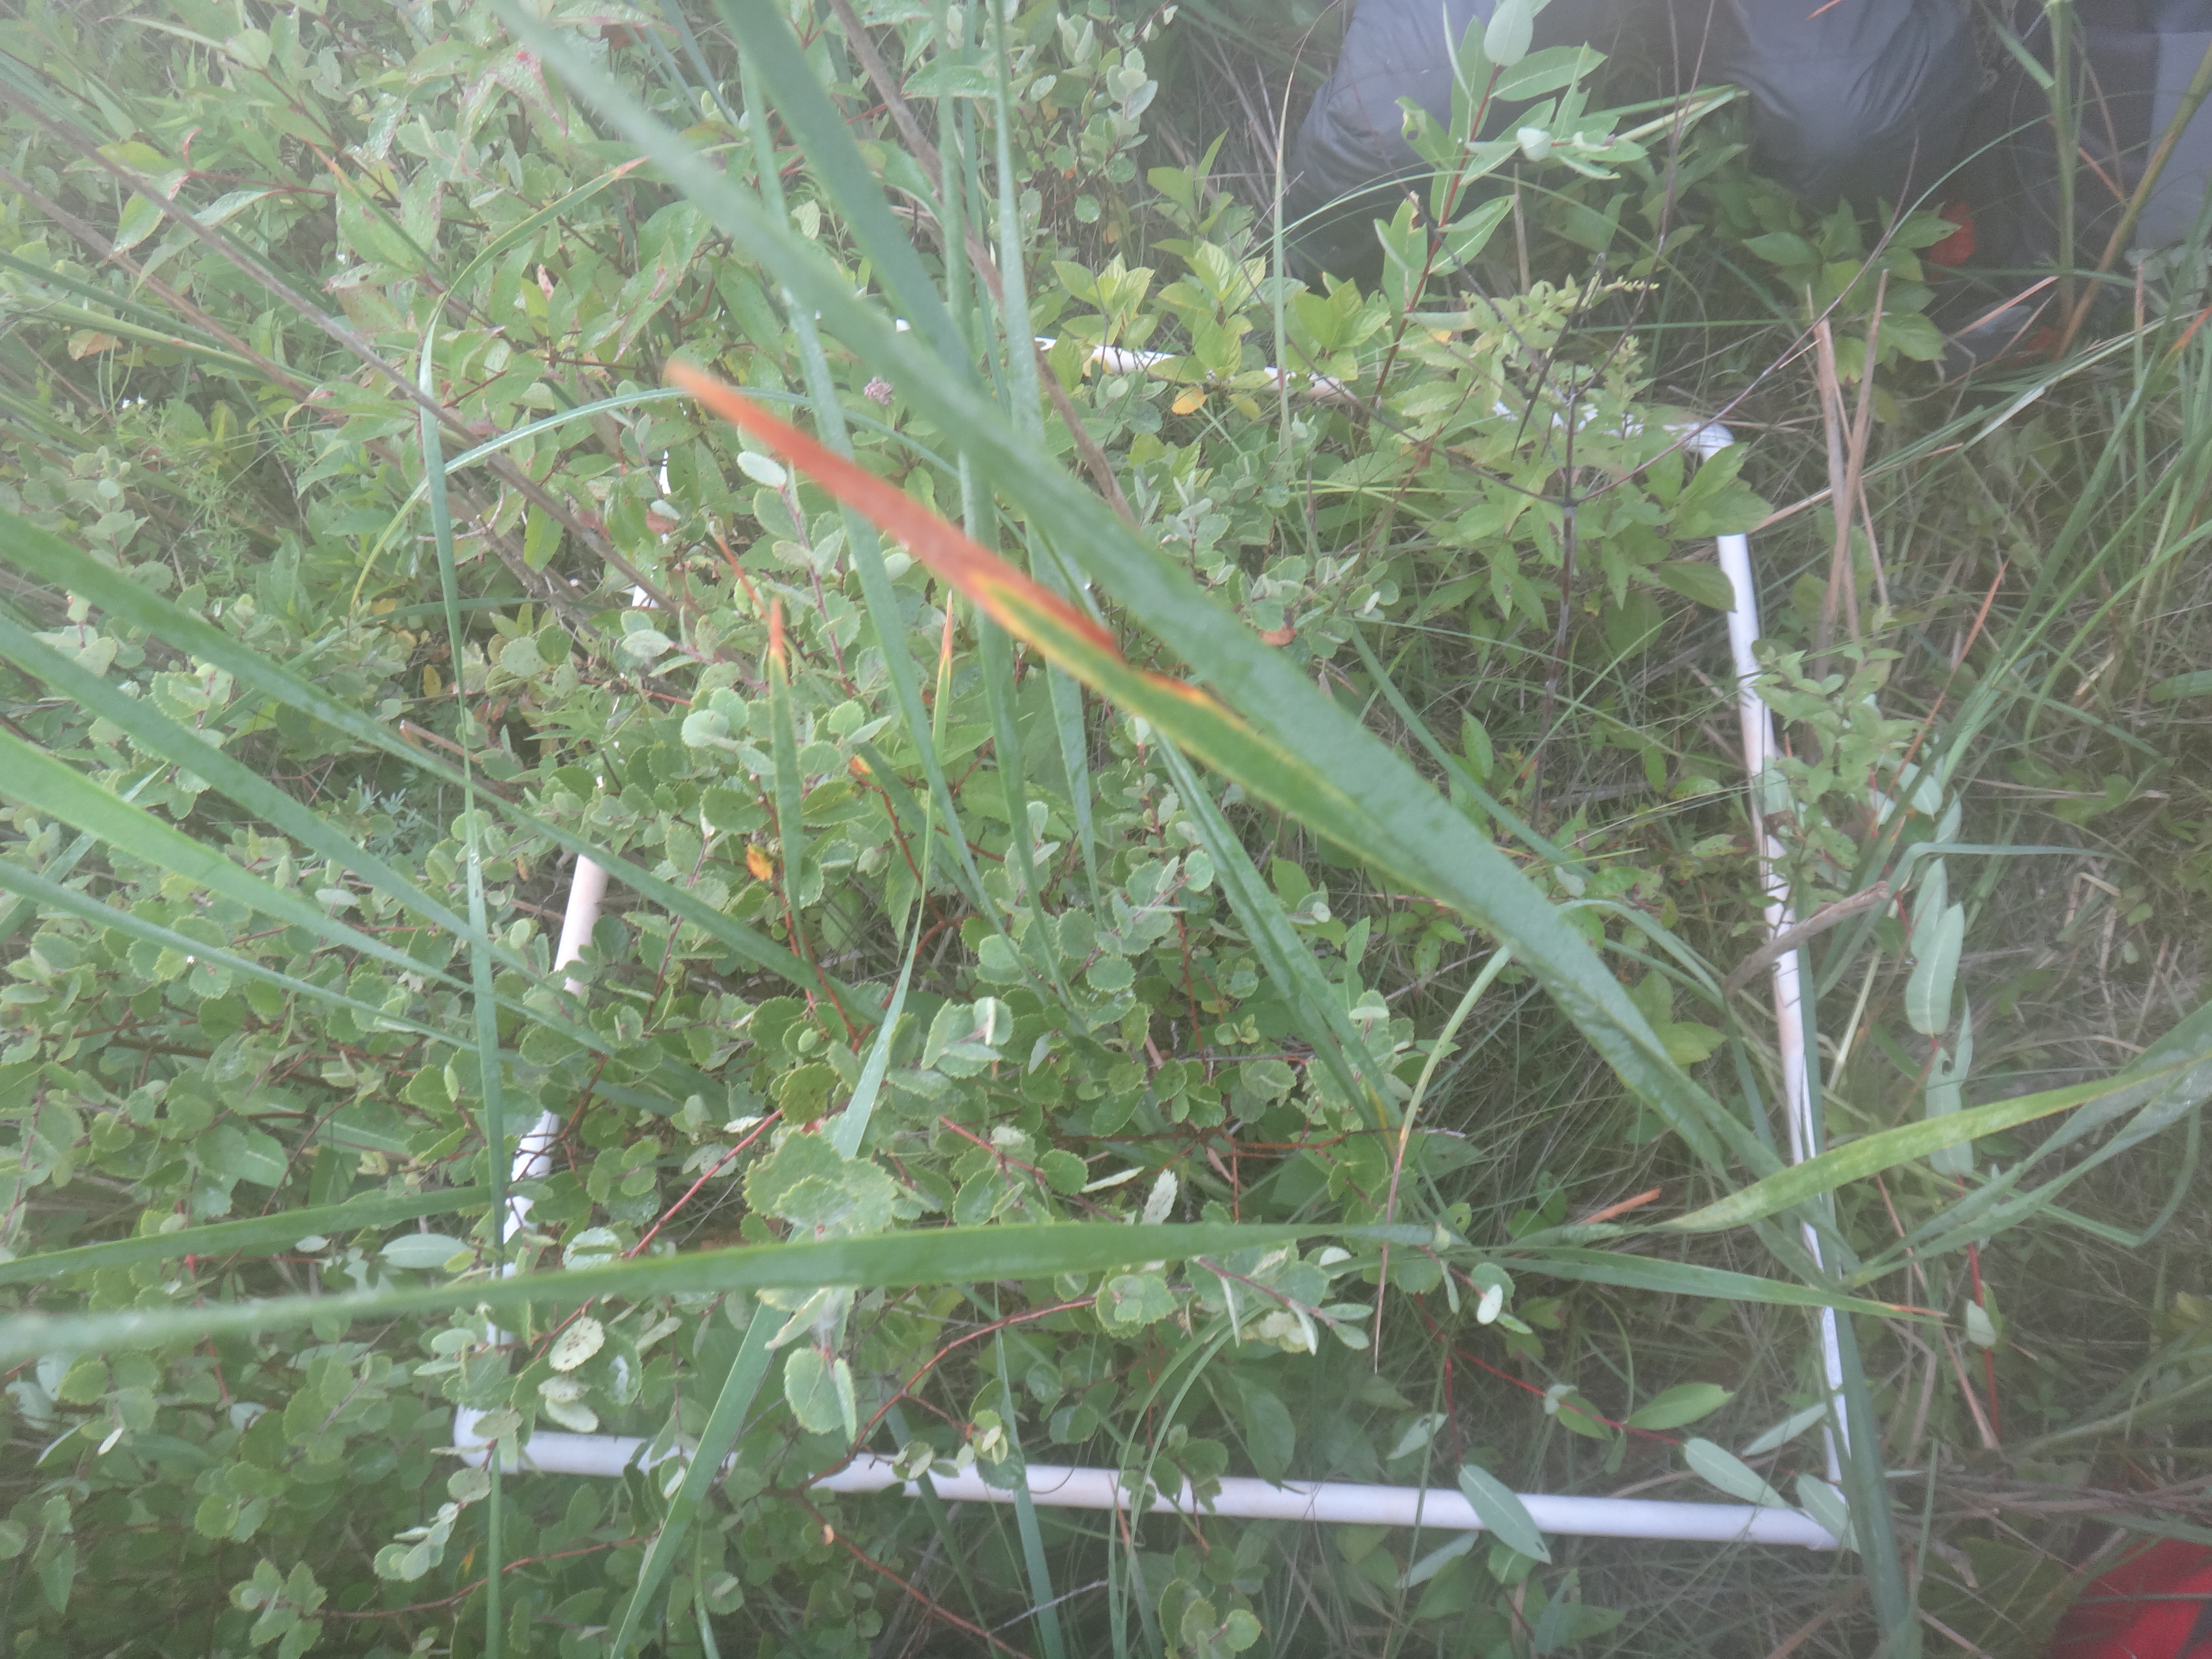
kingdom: Plantae
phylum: Tracheophyta
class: Liliopsida
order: Poales
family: Cyperaceae
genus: Carex
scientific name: Carex lacustris
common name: Common lake sedge
